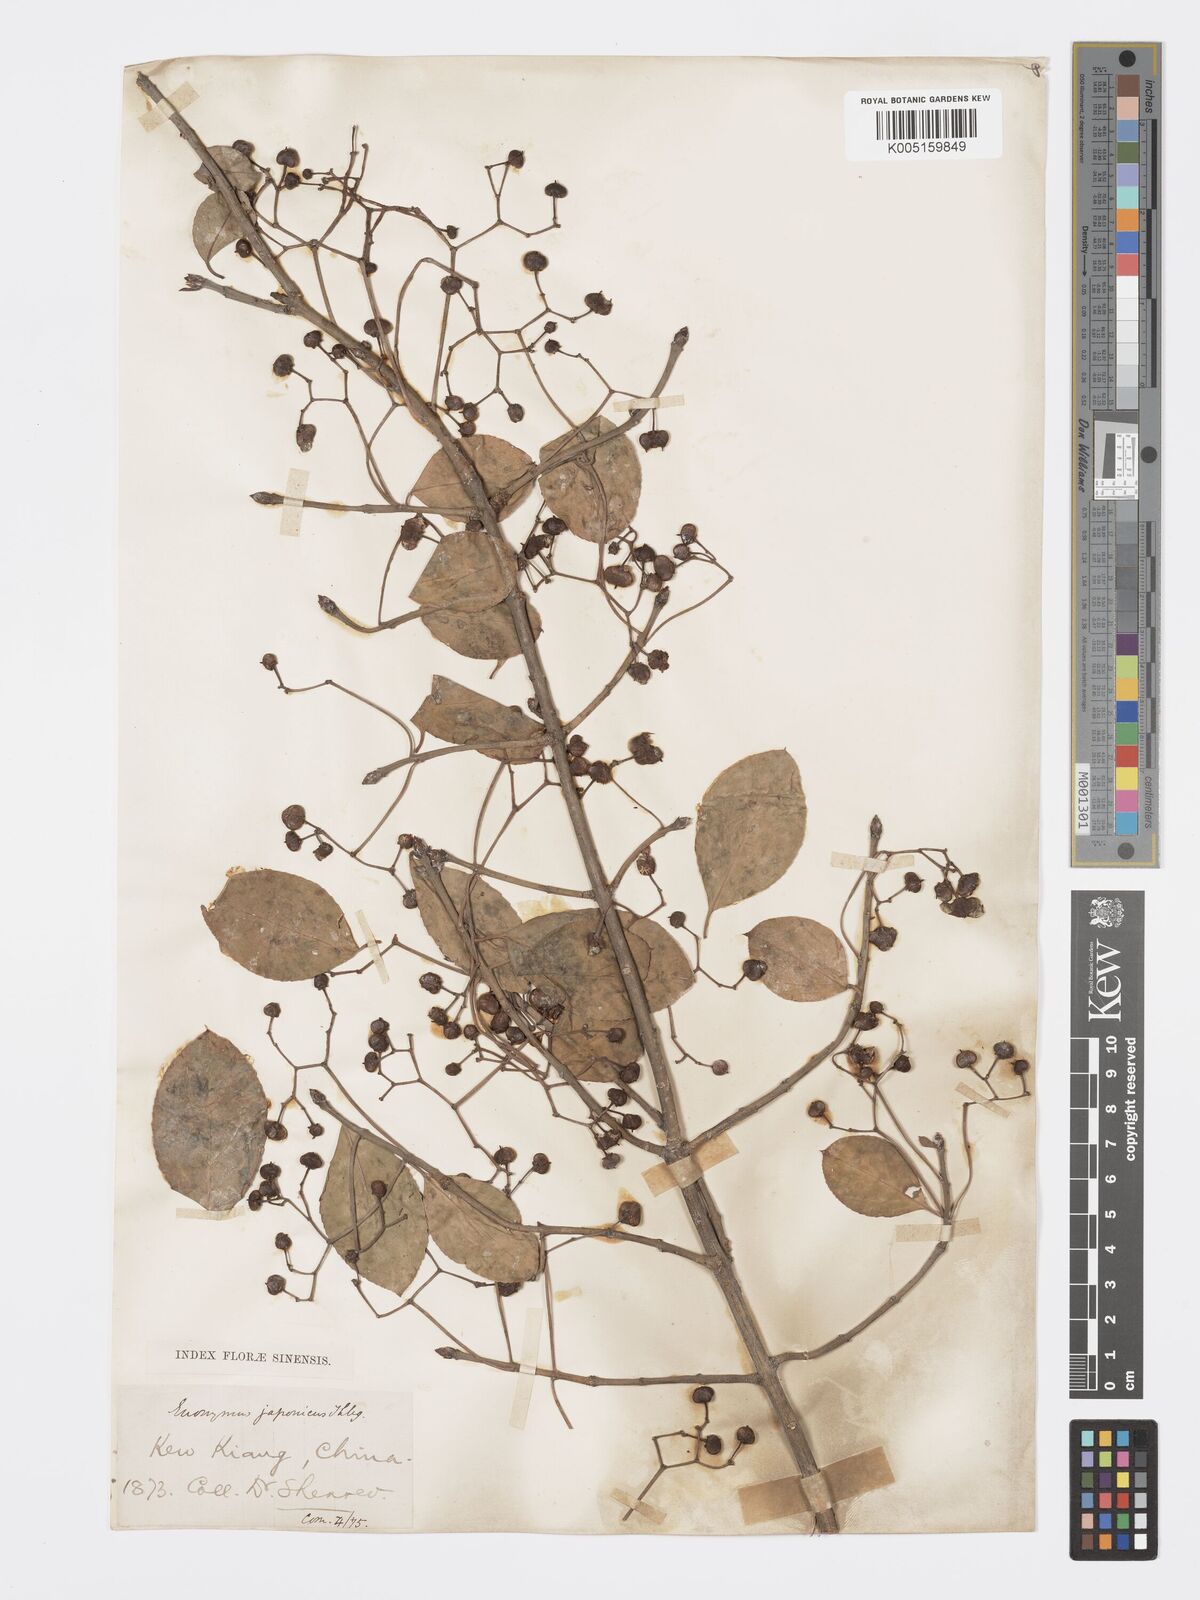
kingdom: Plantae
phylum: Tracheophyta
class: Magnoliopsida
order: Celastrales
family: Celastraceae
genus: Euonymus
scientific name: Euonymus fortunei
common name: Climbing euonymus
